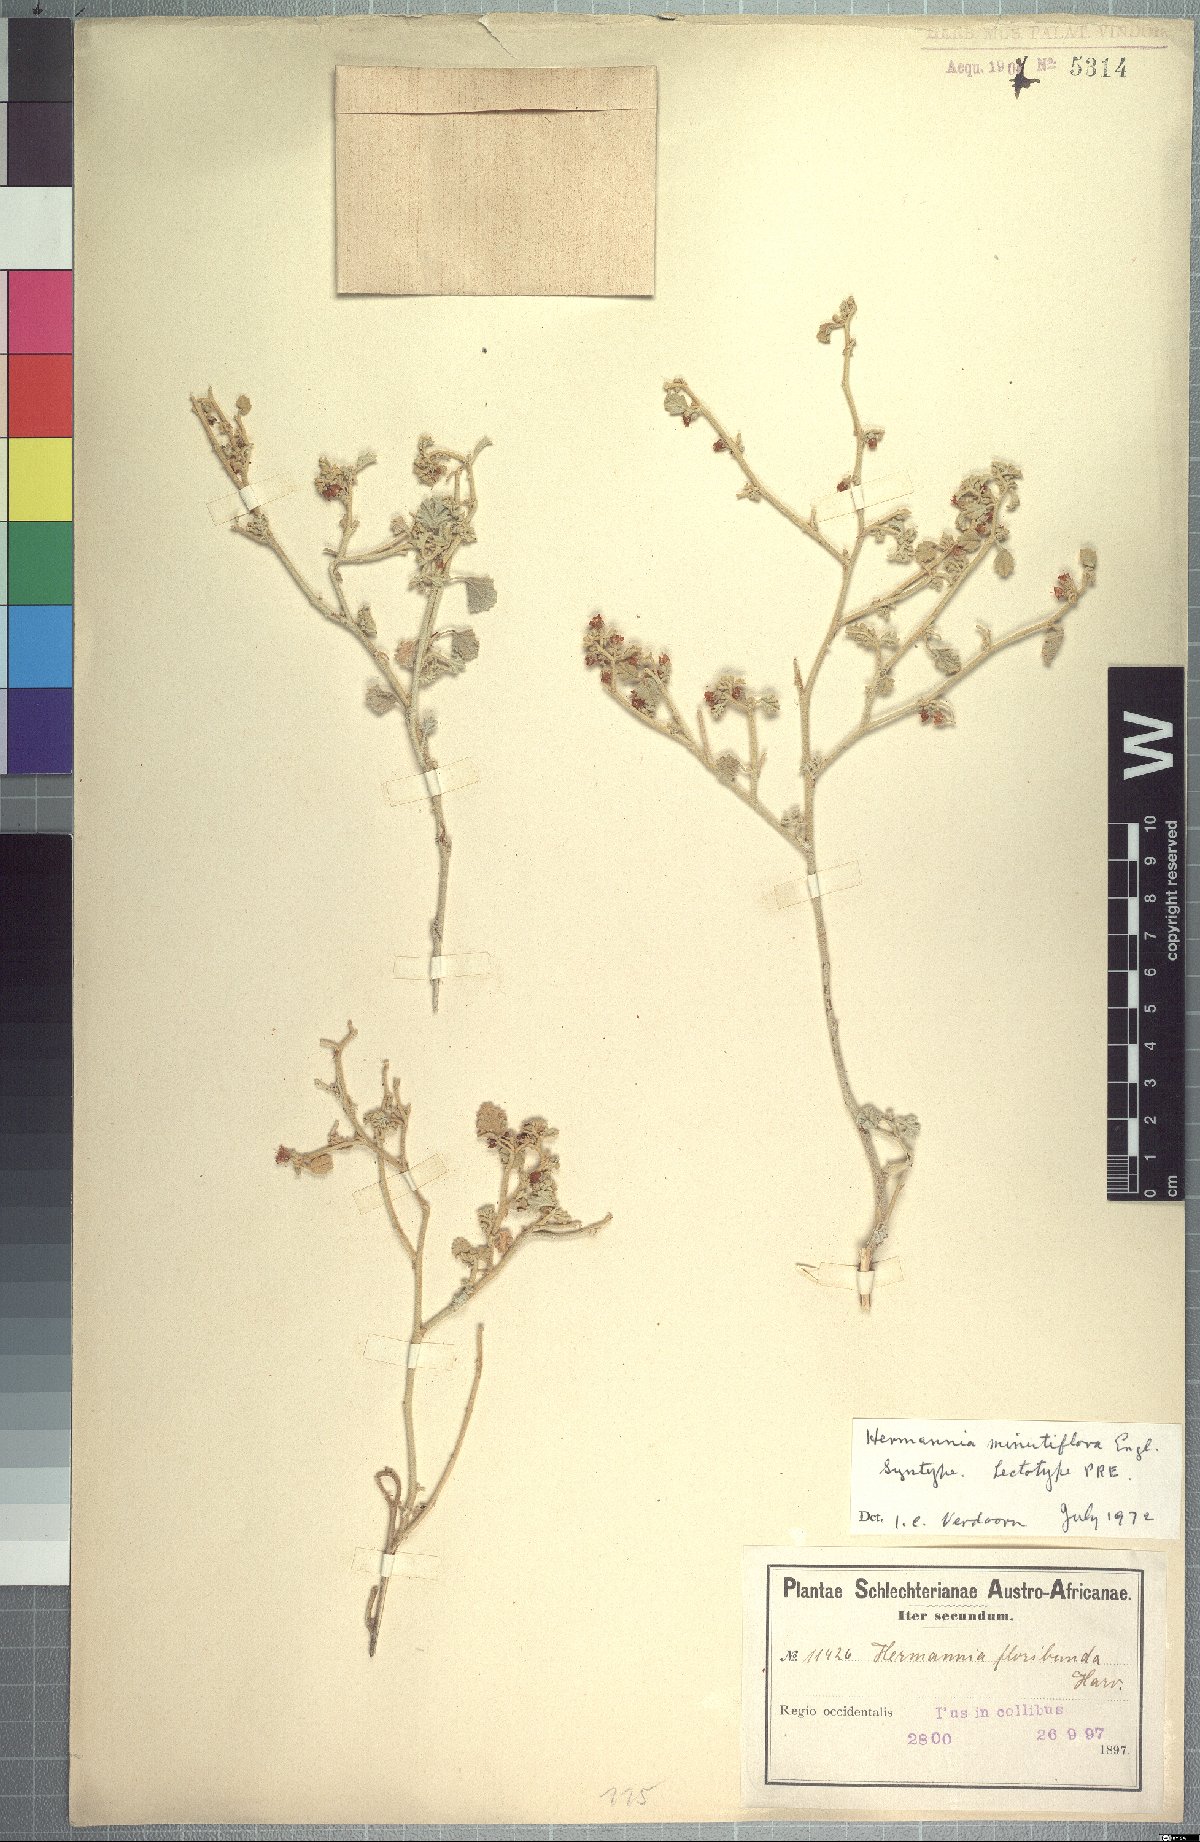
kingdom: Plantae
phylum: Tracheophyta
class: Magnoliopsida
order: Malvales
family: Malvaceae
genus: Hermannia
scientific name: Hermannia minutiflora
